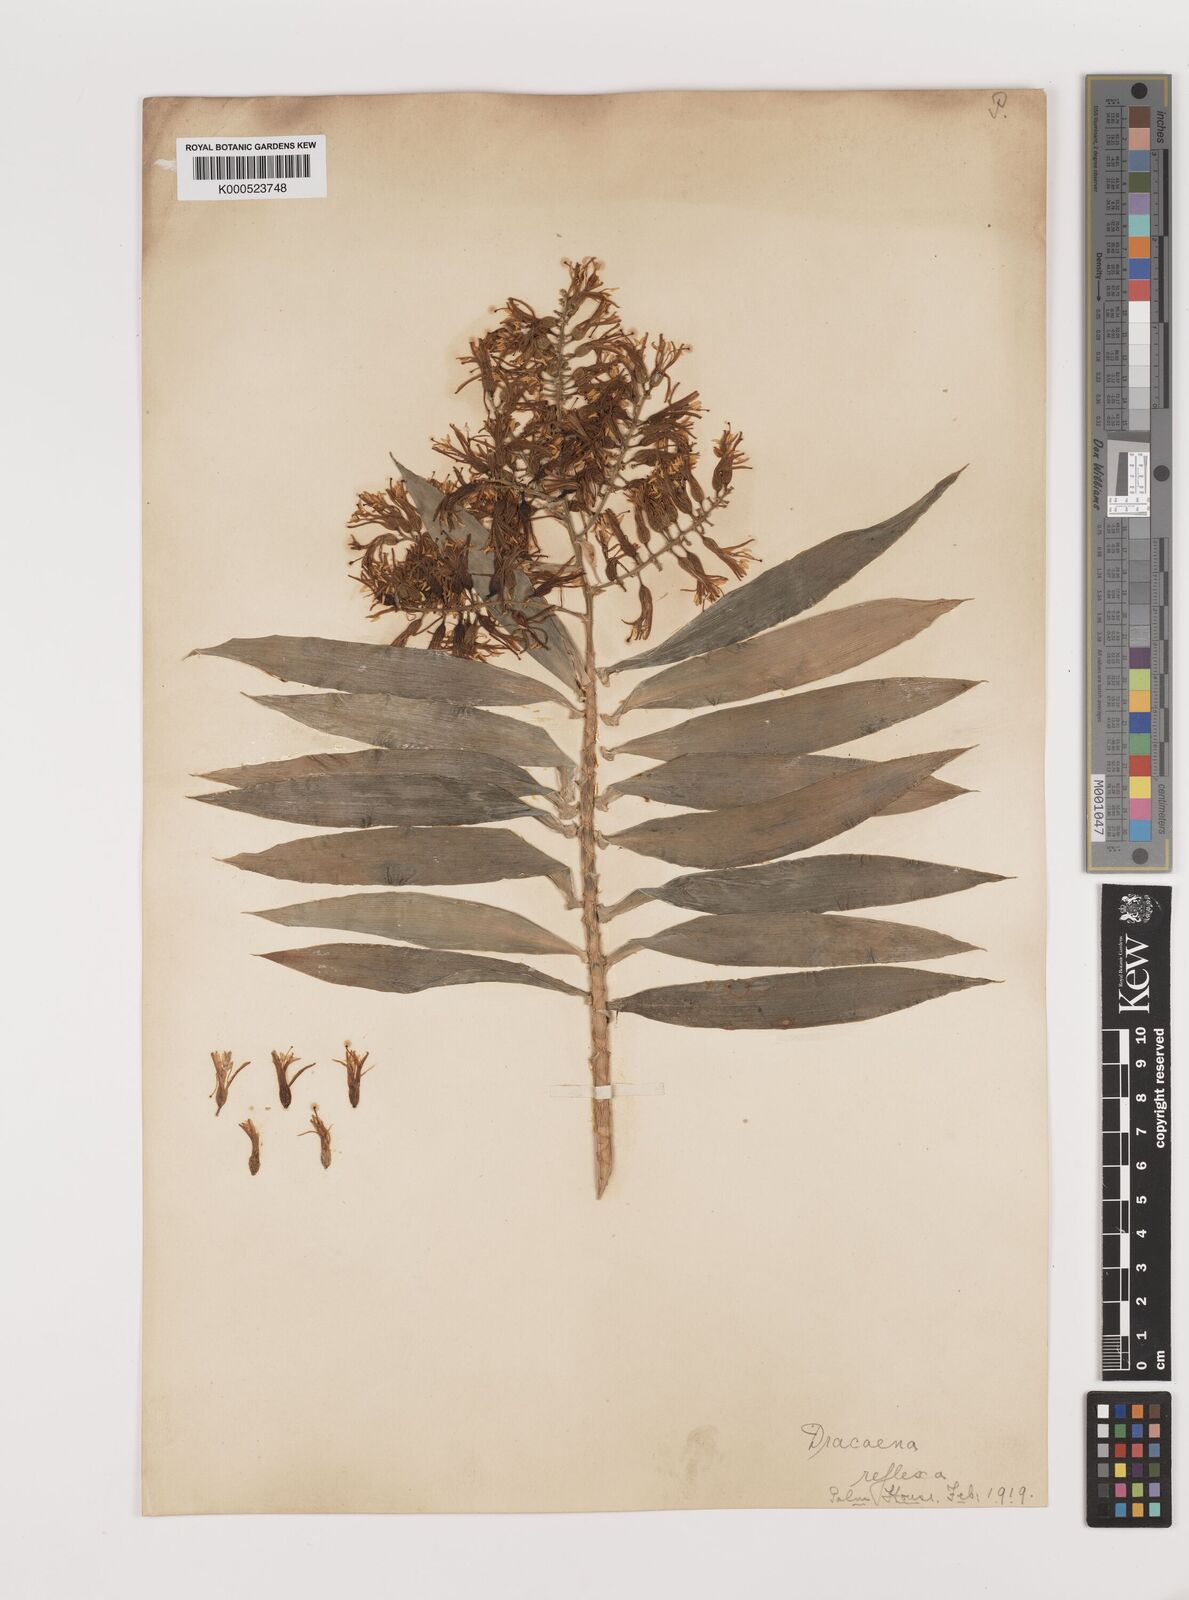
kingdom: Plantae
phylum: Tracheophyta
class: Liliopsida
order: Asparagales
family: Asparagaceae
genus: Dracaena
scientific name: Dracaena reflexa
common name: Song-of-india
